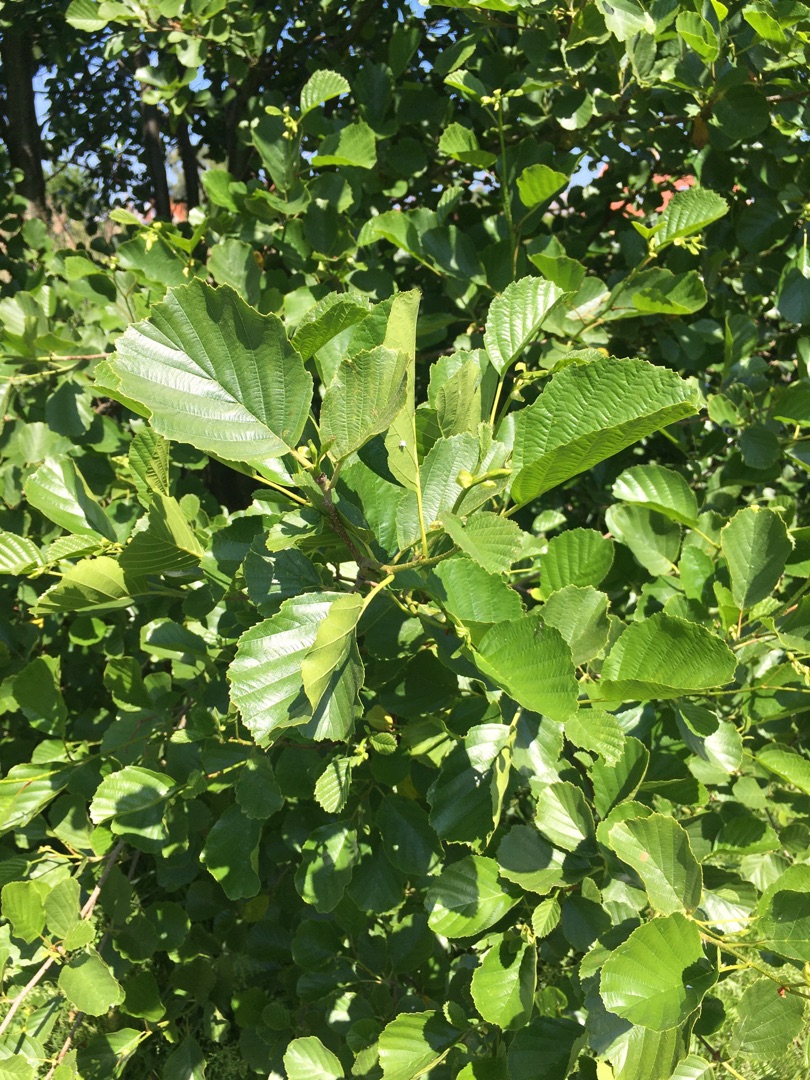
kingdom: Plantae
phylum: Tracheophyta
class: Magnoliopsida
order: Fagales
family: Betulaceae
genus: Alnus
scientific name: Alnus glutinosa
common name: Rød-el
